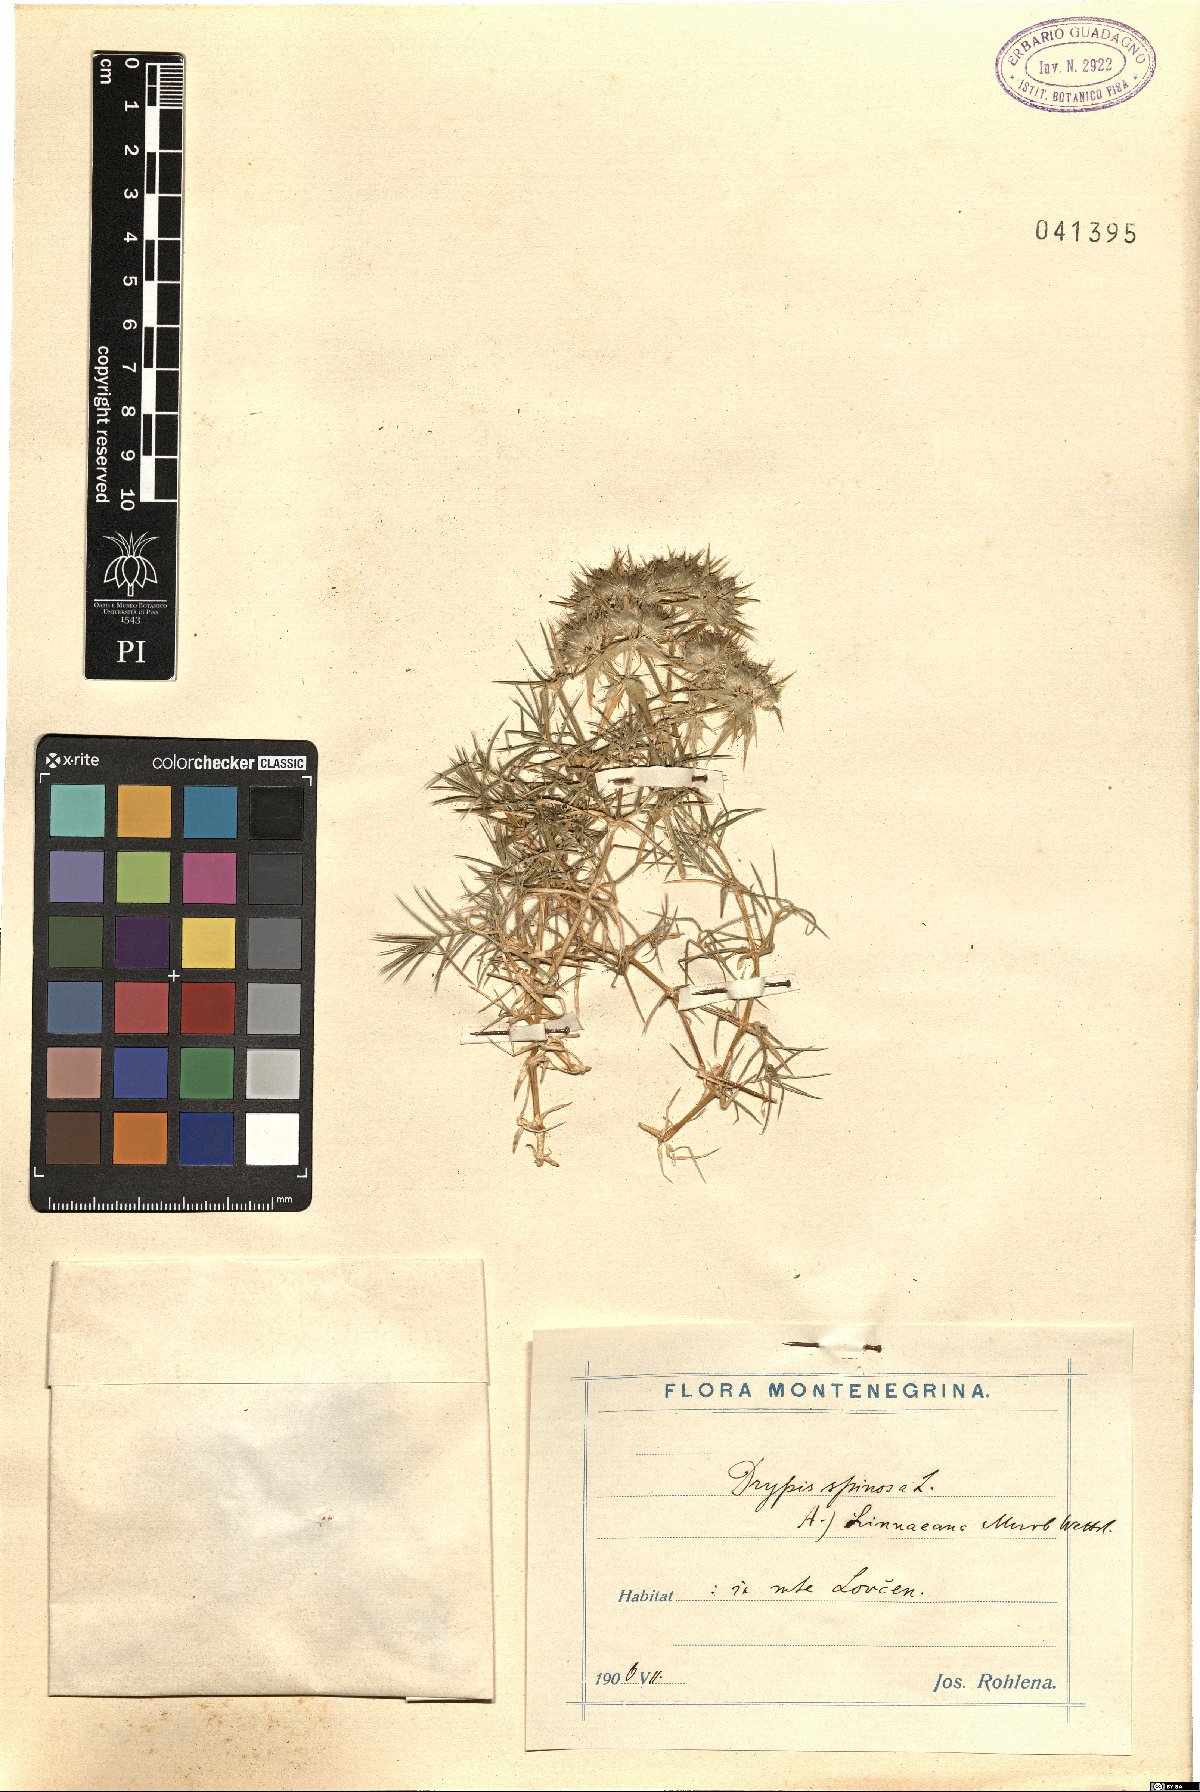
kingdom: Plantae
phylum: Tracheophyta
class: Magnoliopsida
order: Caryophyllales
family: Caryophyllaceae
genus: Drypis
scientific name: Drypis spinosa
